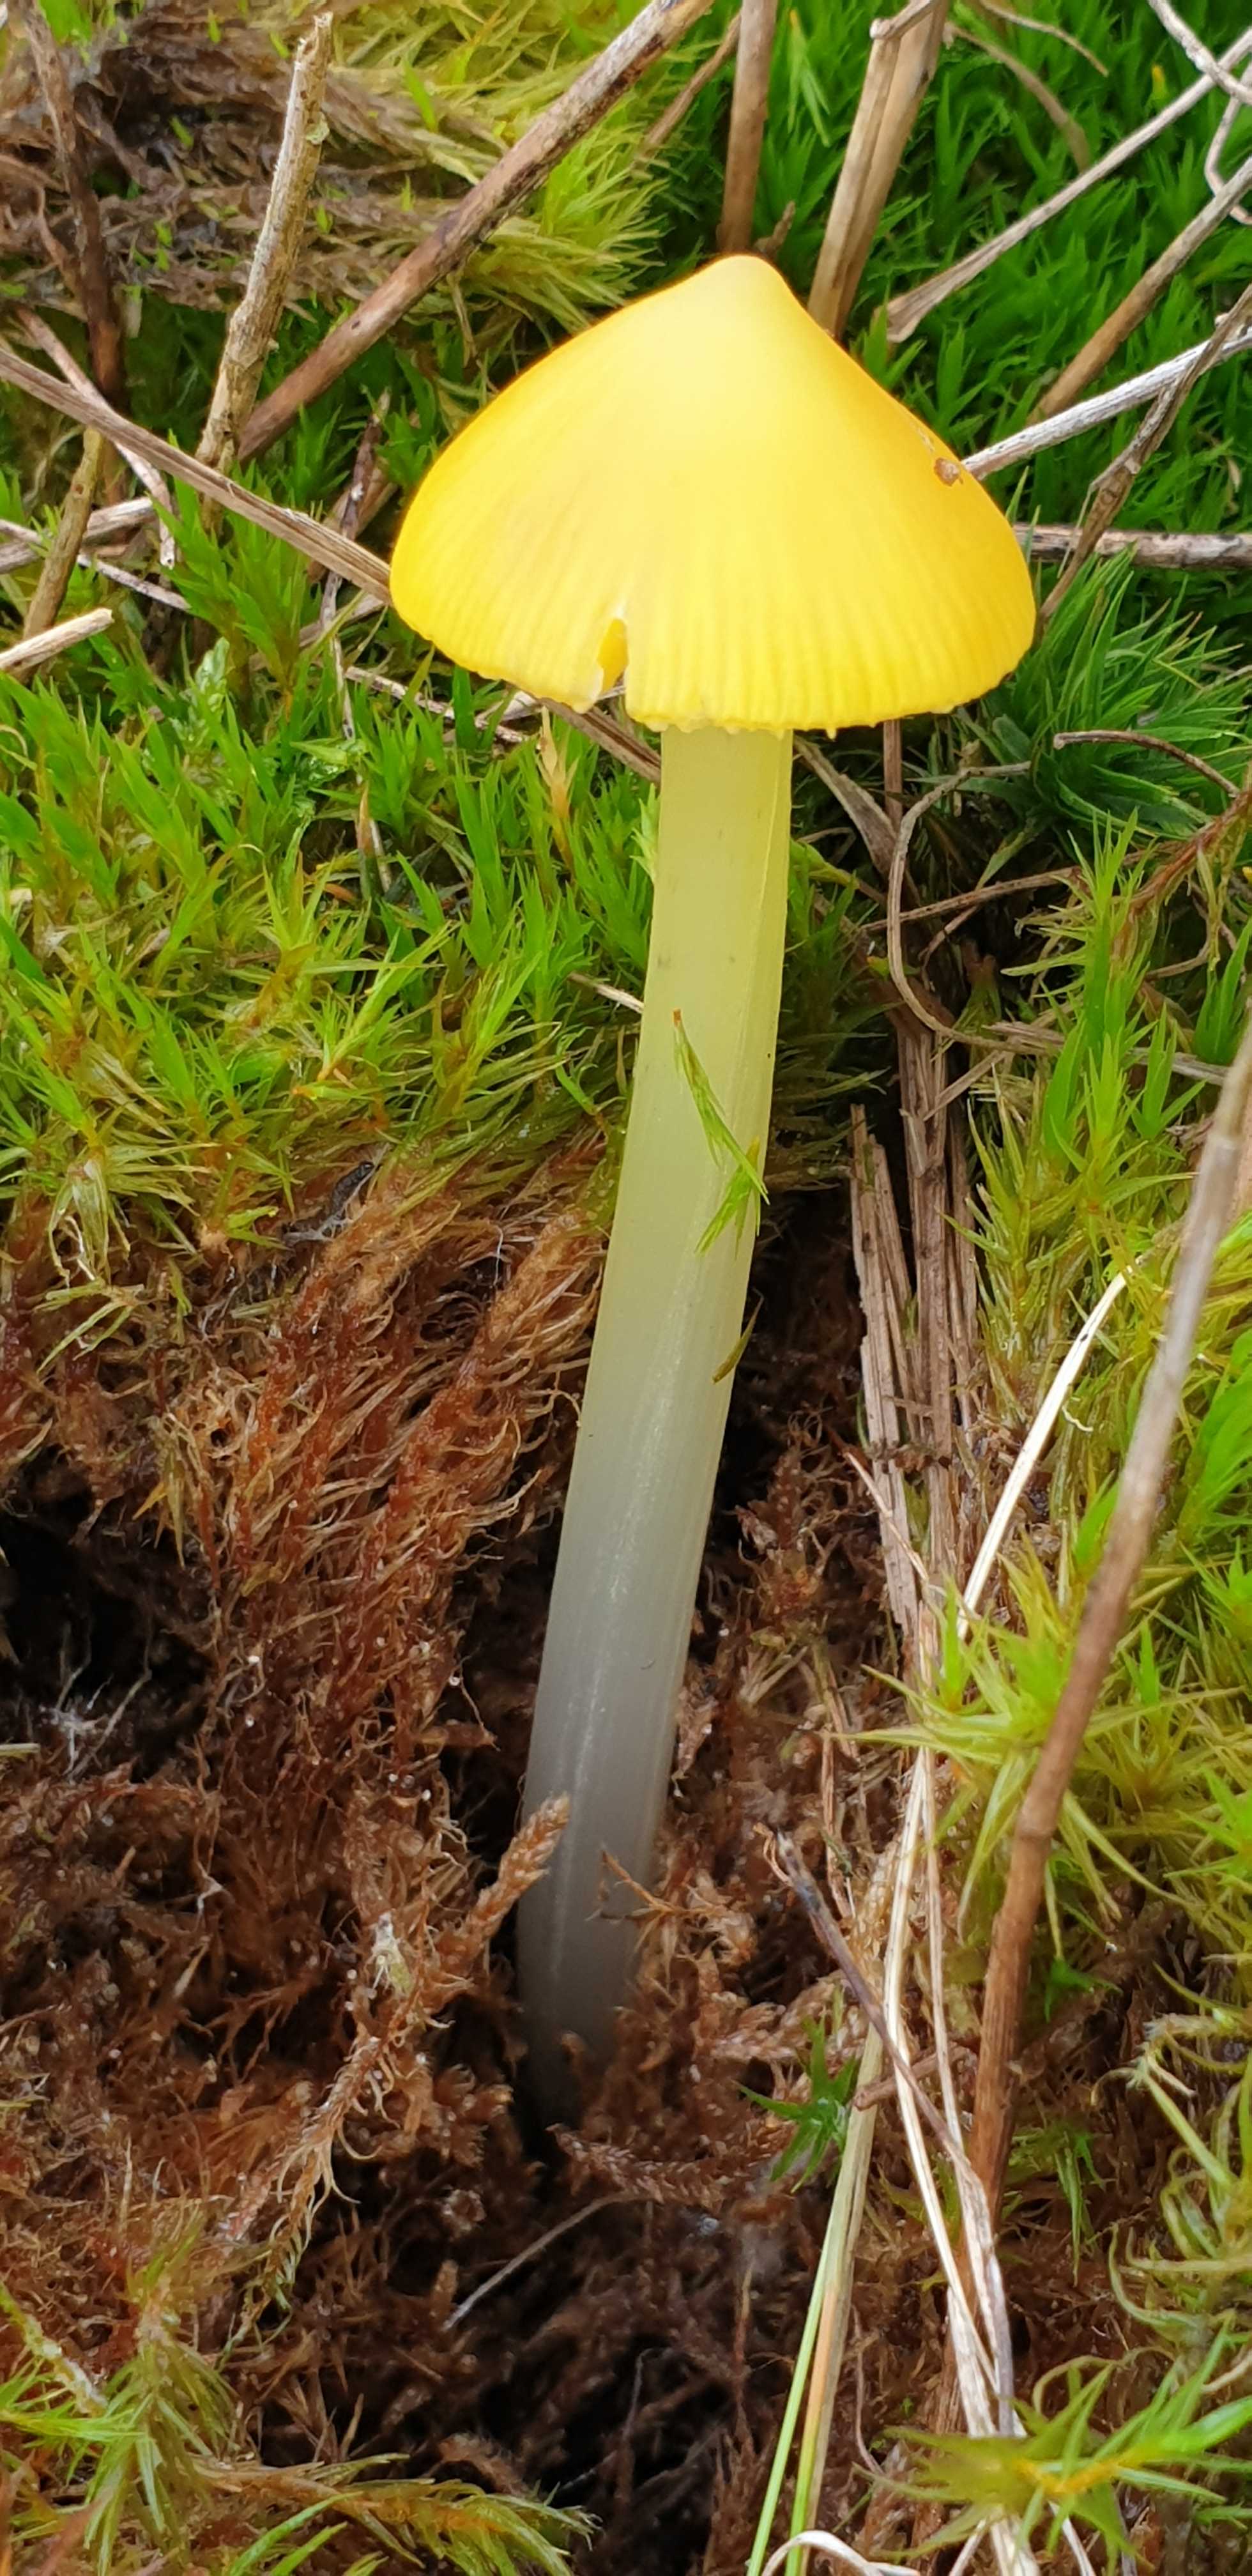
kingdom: Fungi
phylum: Basidiomycota
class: Agaricomycetes
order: Agaricales
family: Hygrophoraceae
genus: Hygrocybe
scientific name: Hygrocybe acutoconica
